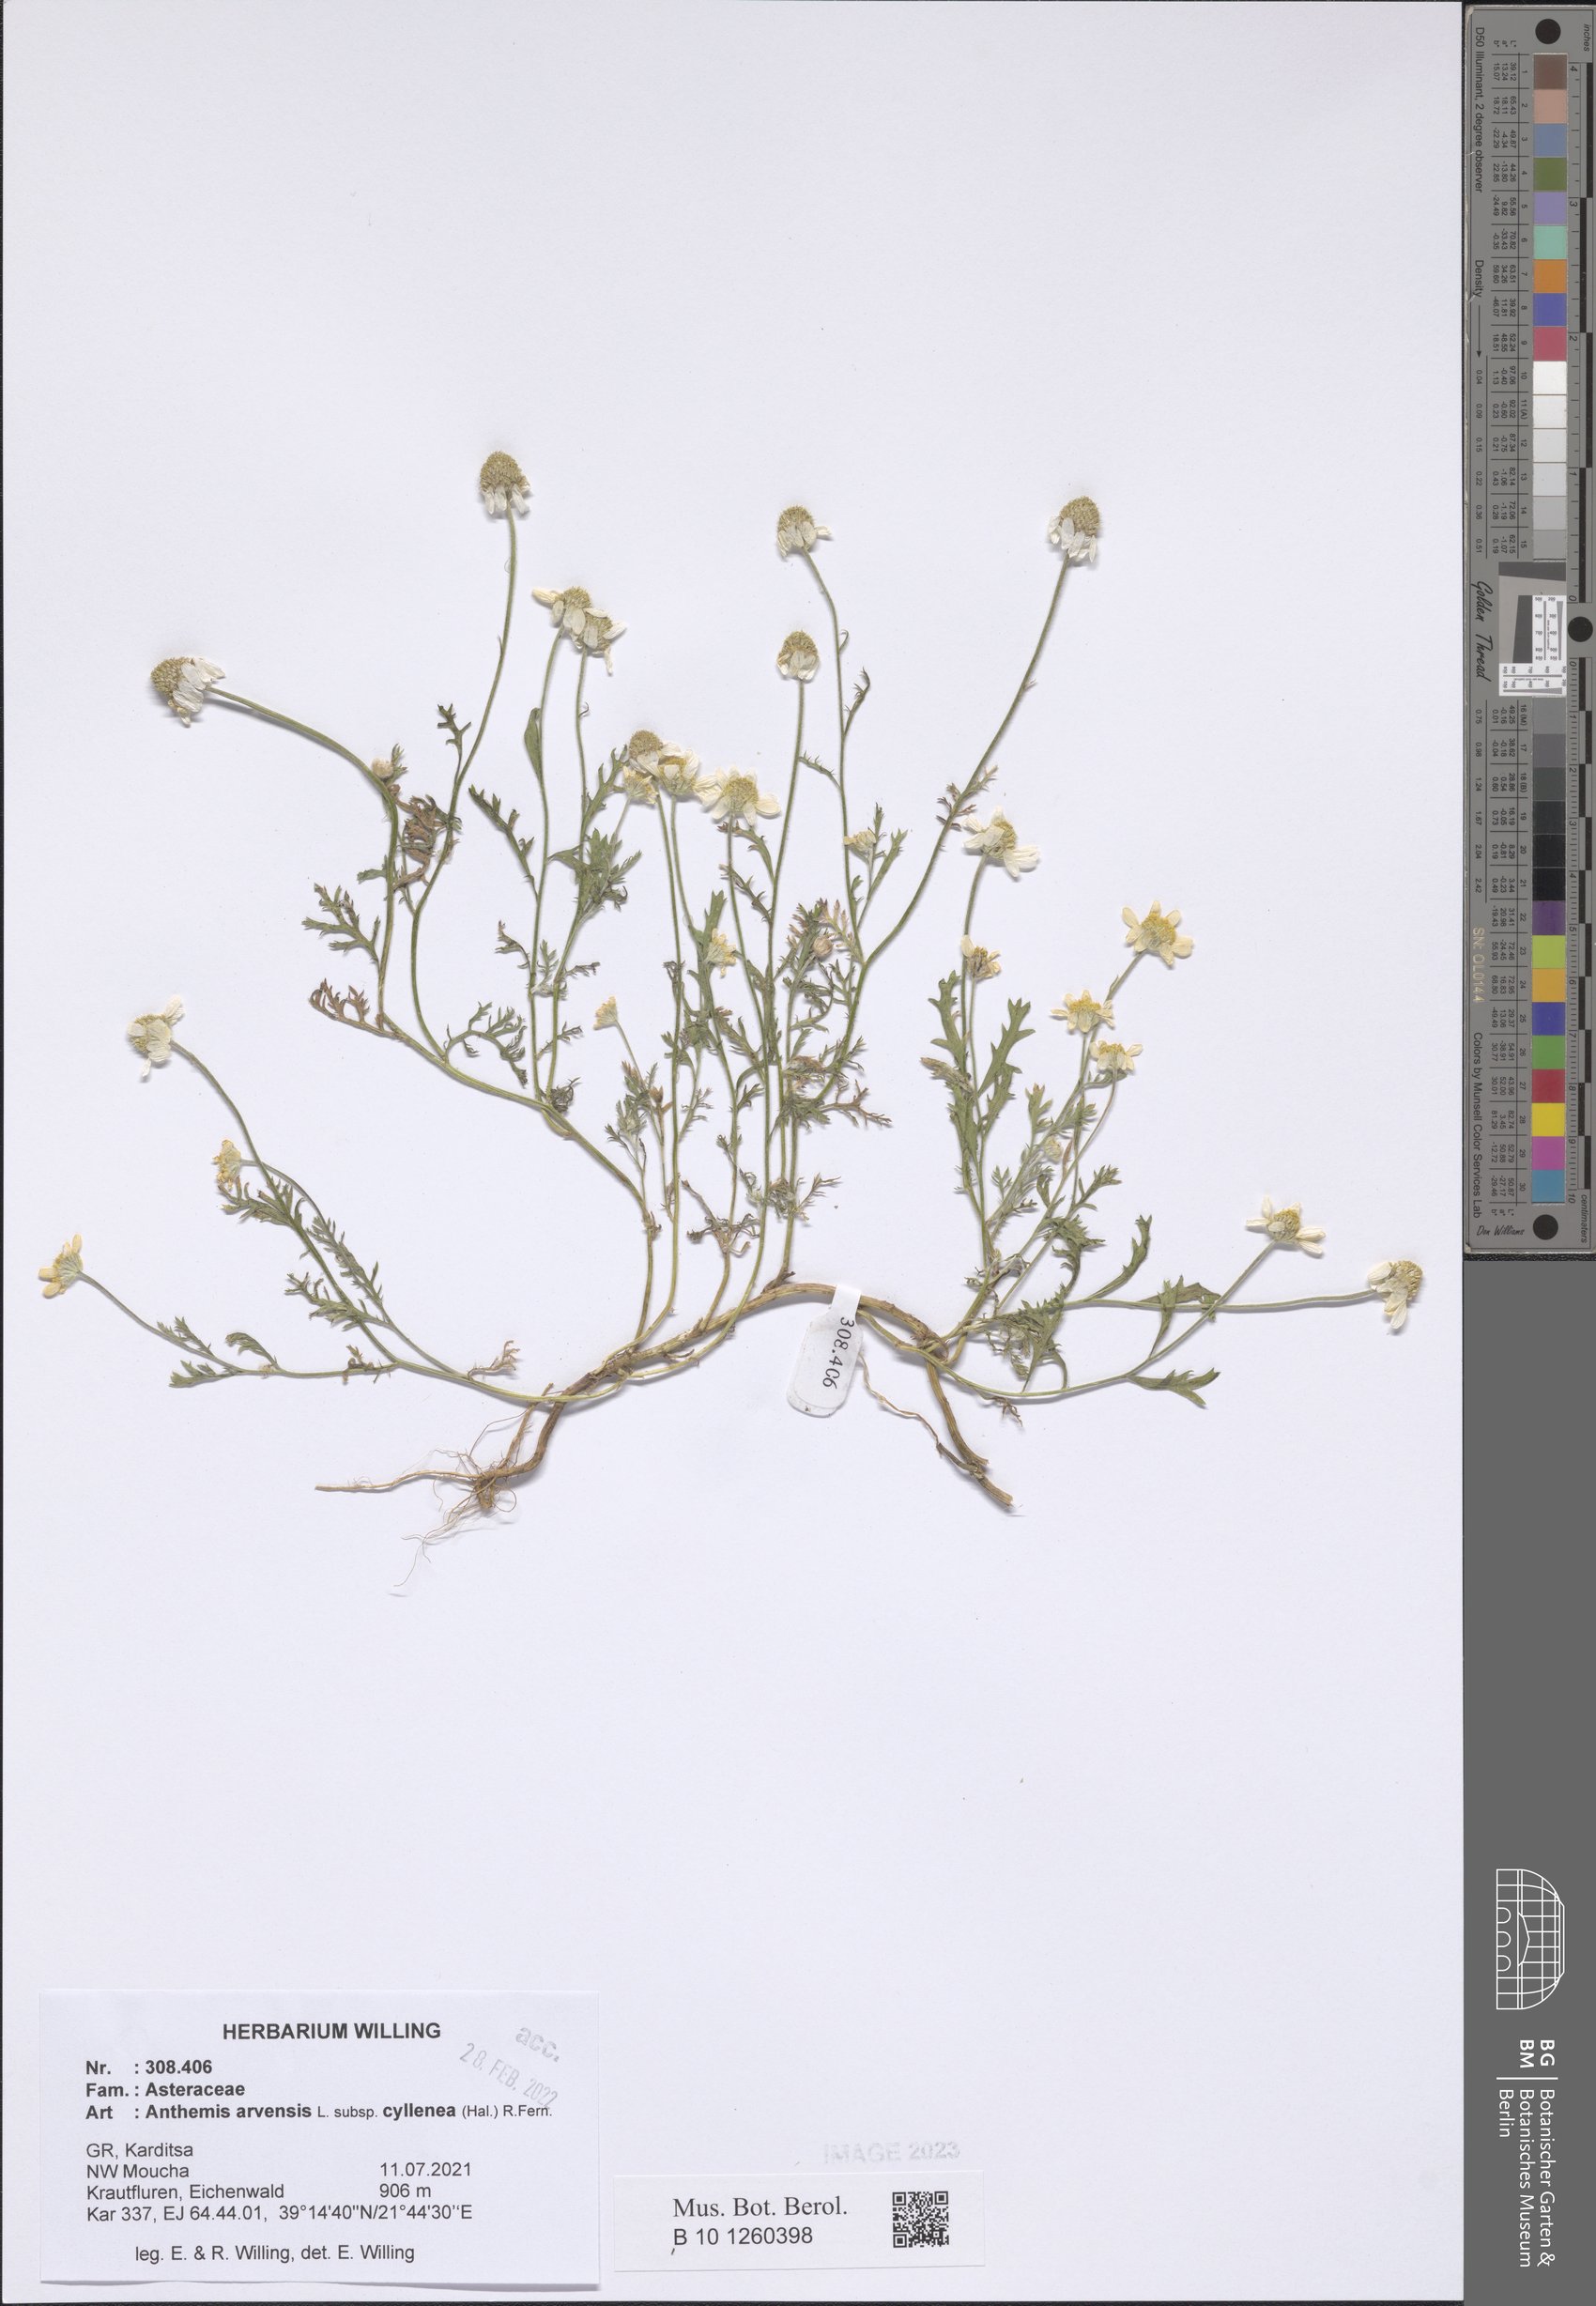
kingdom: Plantae
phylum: Tracheophyta
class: Magnoliopsida
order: Asterales
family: Asteraceae
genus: Anthemis
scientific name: Anthemis arvensis
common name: Corn chamomile
